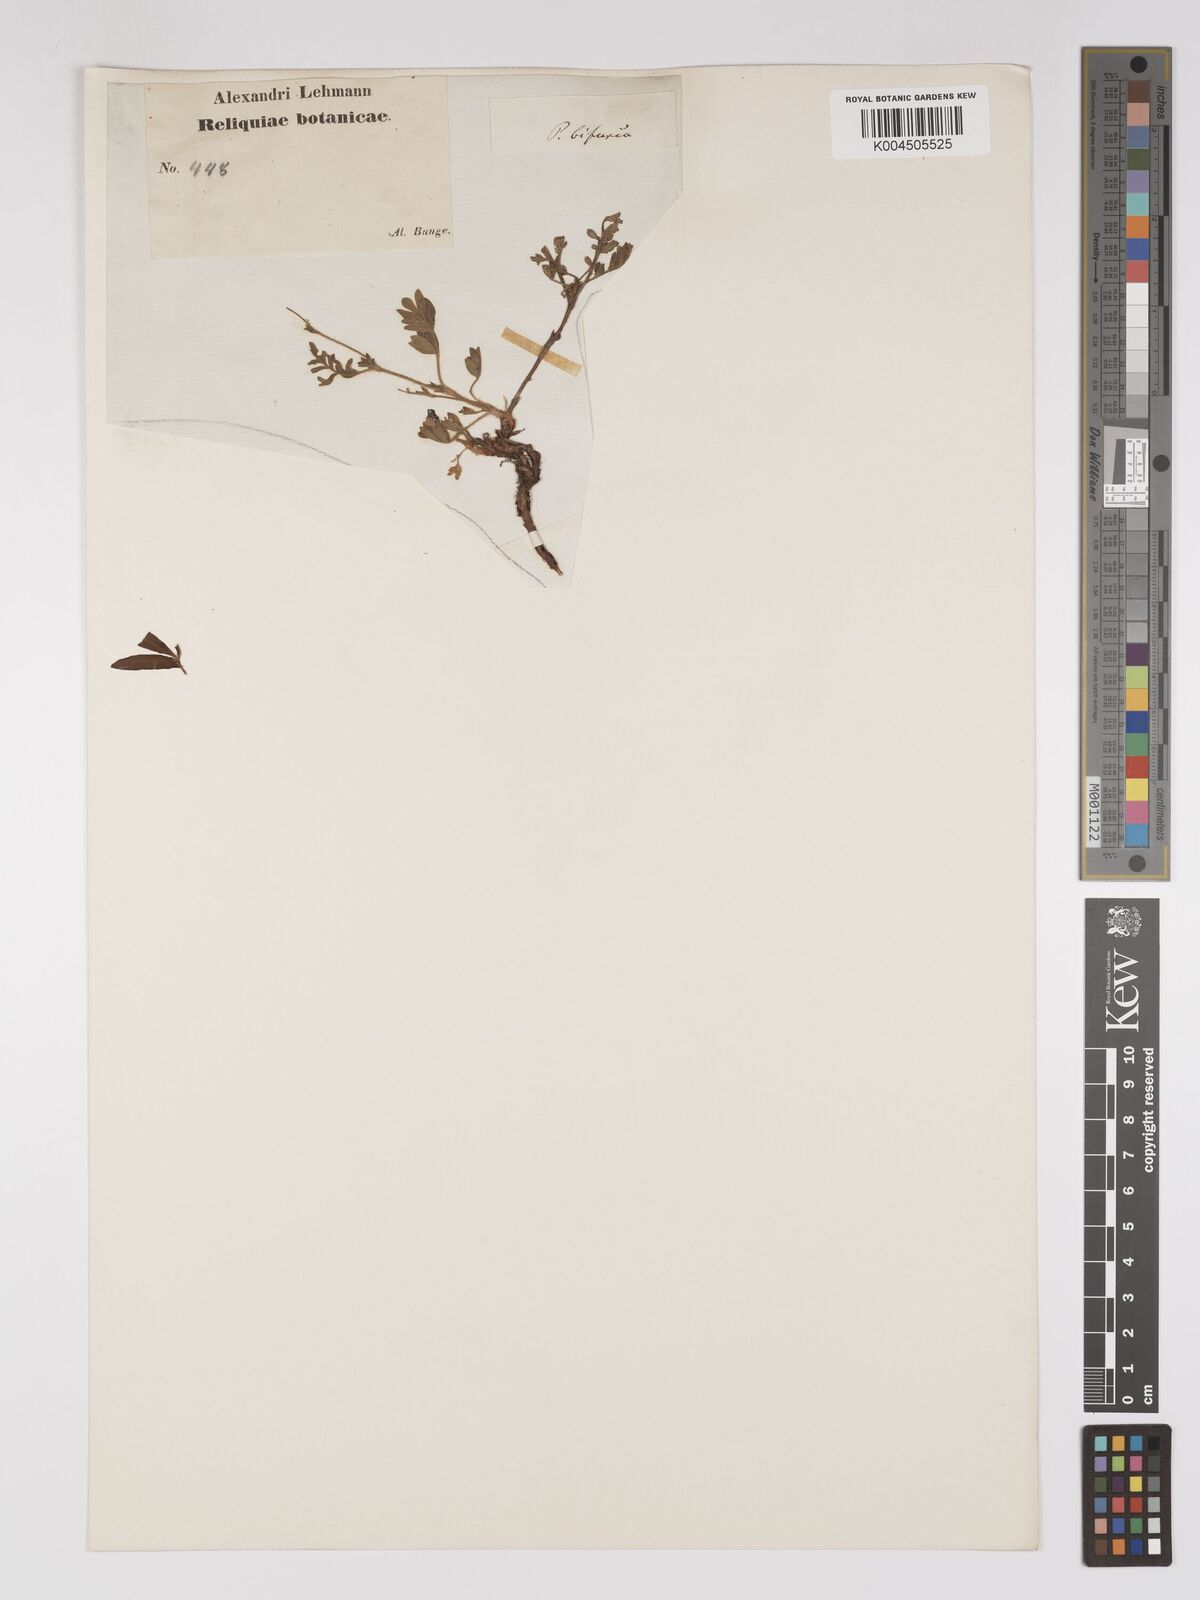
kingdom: Plantae
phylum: Tracheophyta
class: Magnoliopsida
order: Rosales
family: Rosaceae
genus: Sibbaldianthe
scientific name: Sibbaldianthe bifurca
